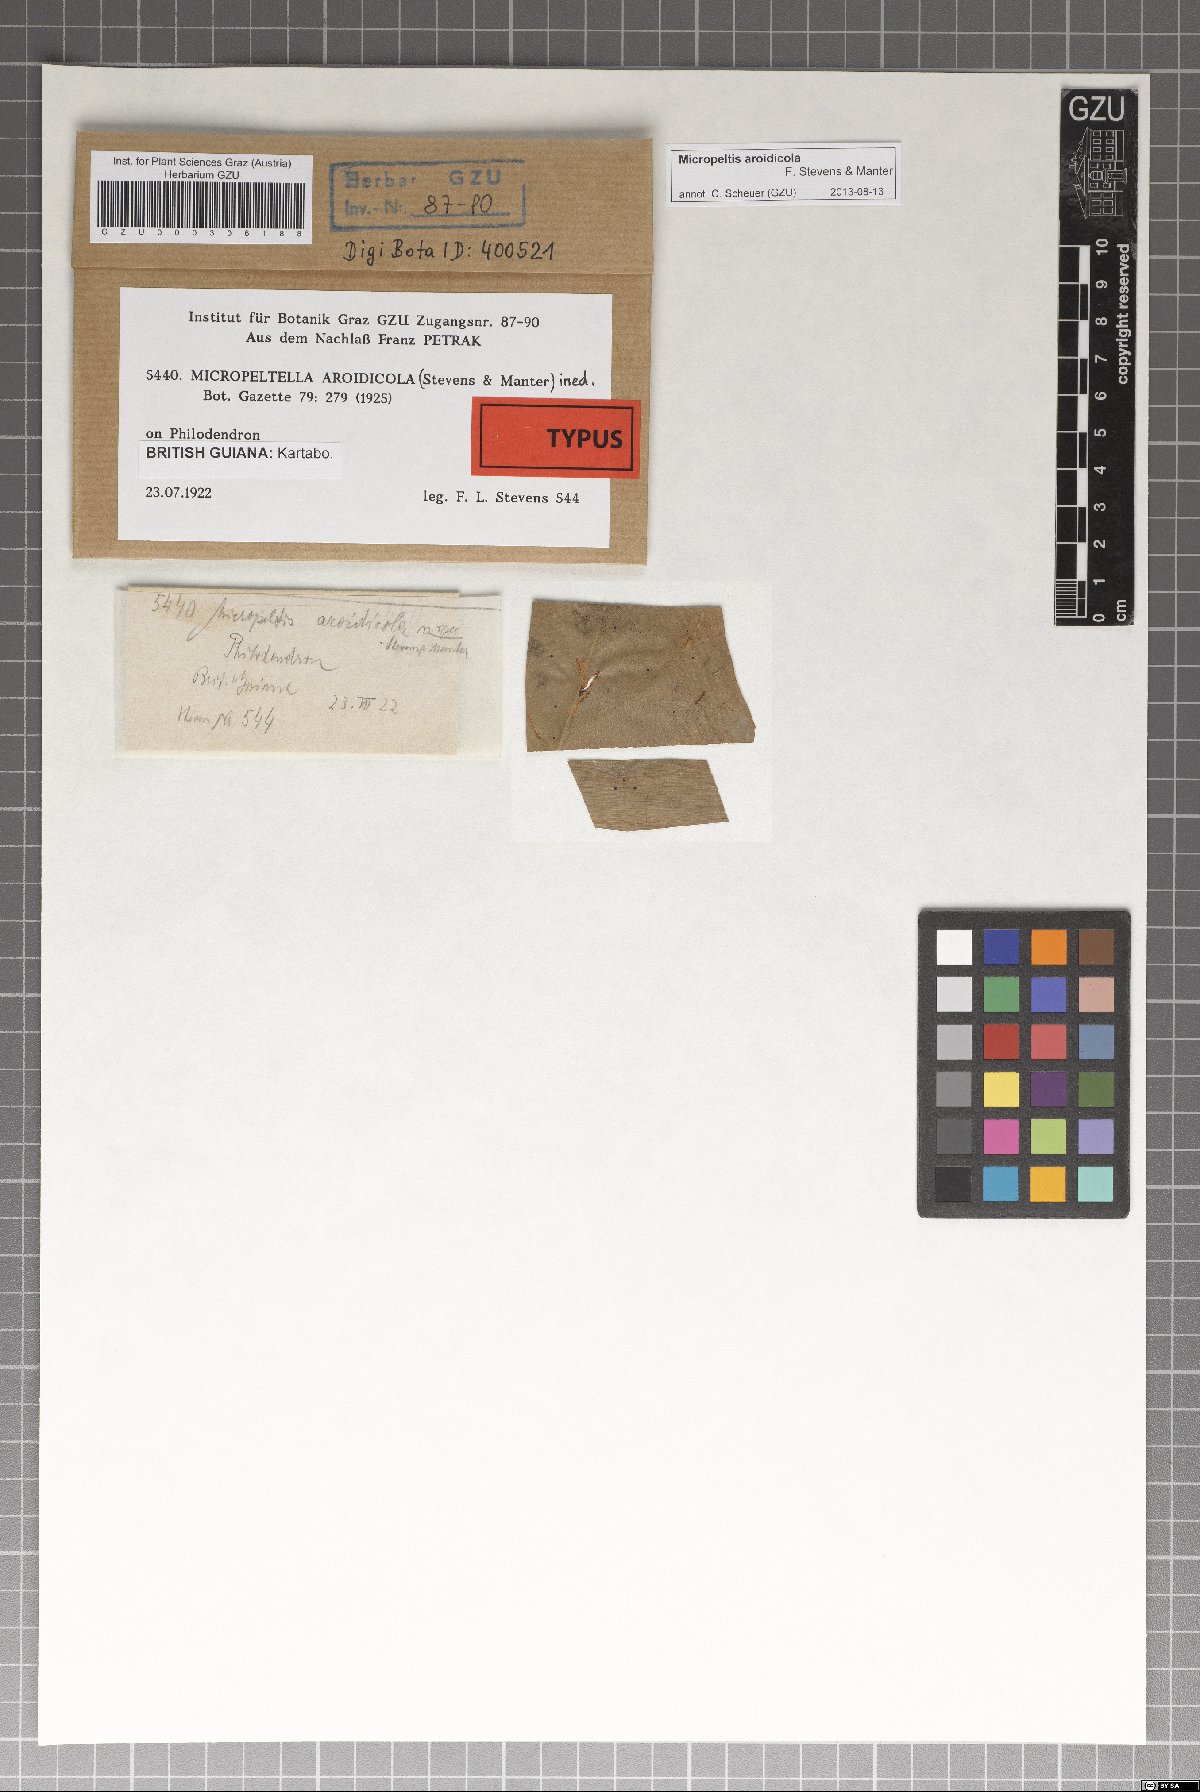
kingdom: Fungi
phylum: Ascomycota
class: Dothideomycetes
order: Microthyriales
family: Micropeltidaceae
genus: Micropeltis
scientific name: Micropeltis aroidicola
